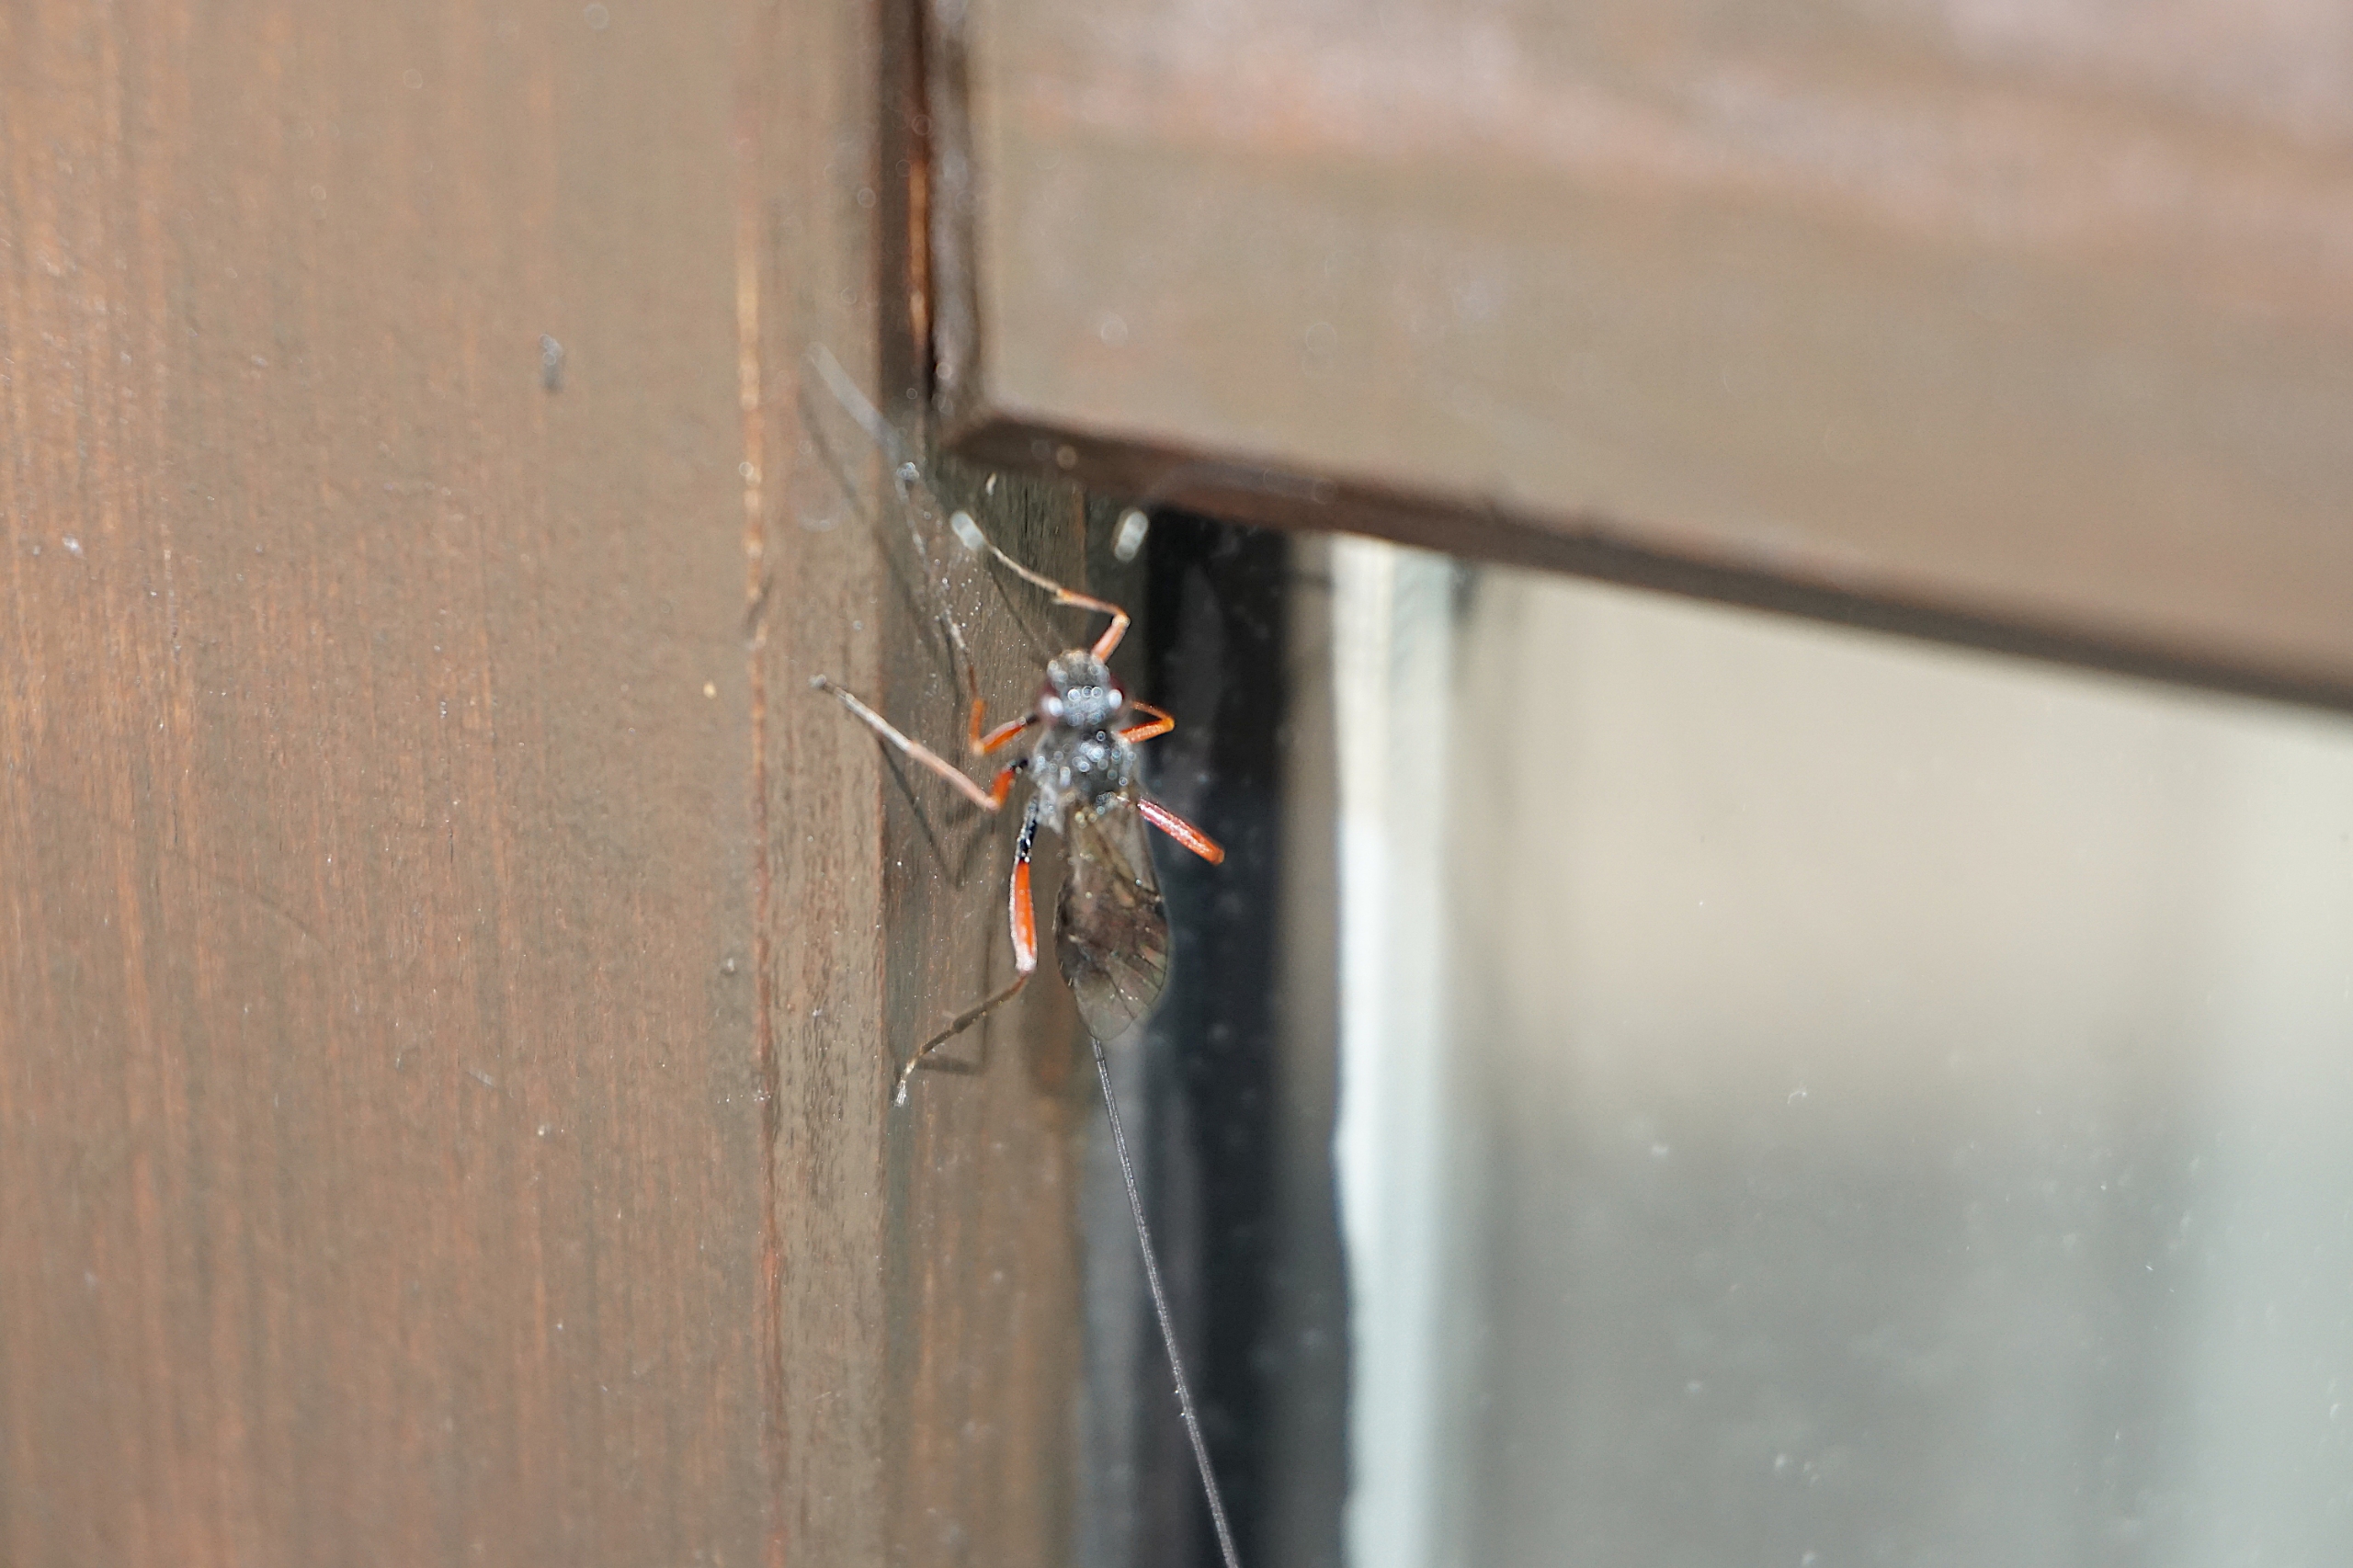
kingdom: Animalia
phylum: Arthropoda
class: Insecta
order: Hymenoptera
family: Ichneumonidae
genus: Stenarella
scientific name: Stenarella domator
